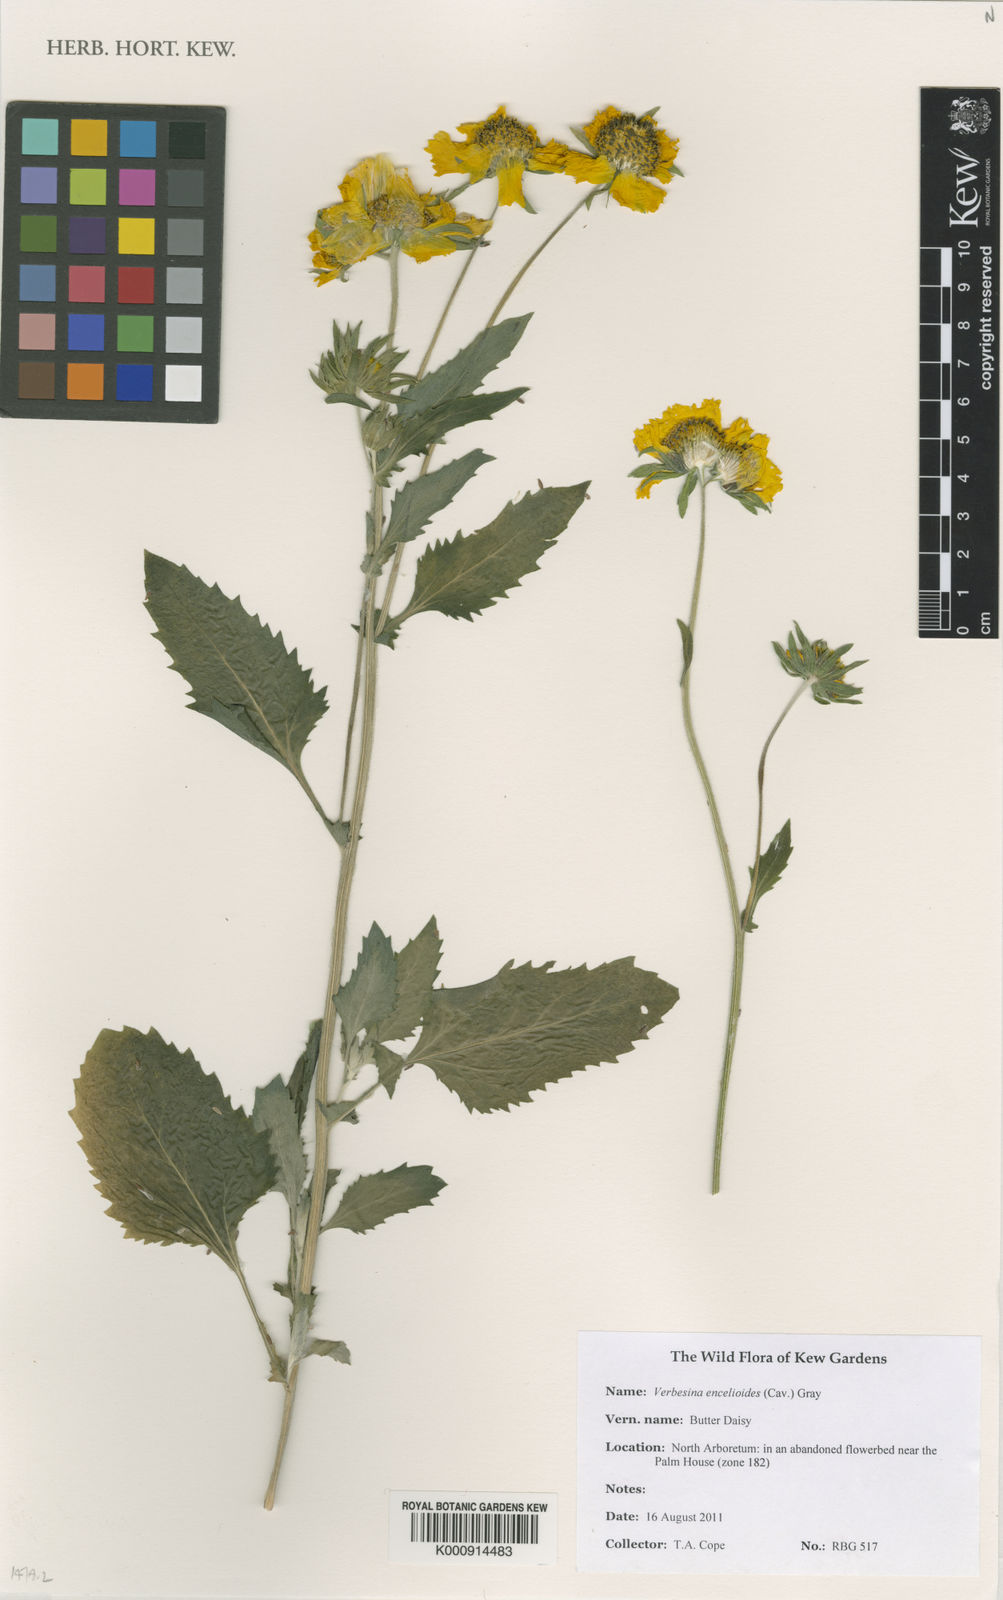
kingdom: Plantae
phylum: Tracheophyta
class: Magnoliopsida
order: Asterales
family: Asteraceae
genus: Verbesina
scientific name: Verbesina encelioides
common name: Golden crownbeard
